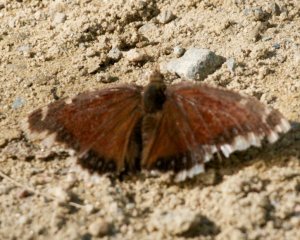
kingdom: Animalia
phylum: Arthropoda
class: Insecta
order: Lepidoptera
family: Nymphalidae
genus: Nymphalis
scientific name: Nymphalis antiopa
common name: Mourning Cloak
